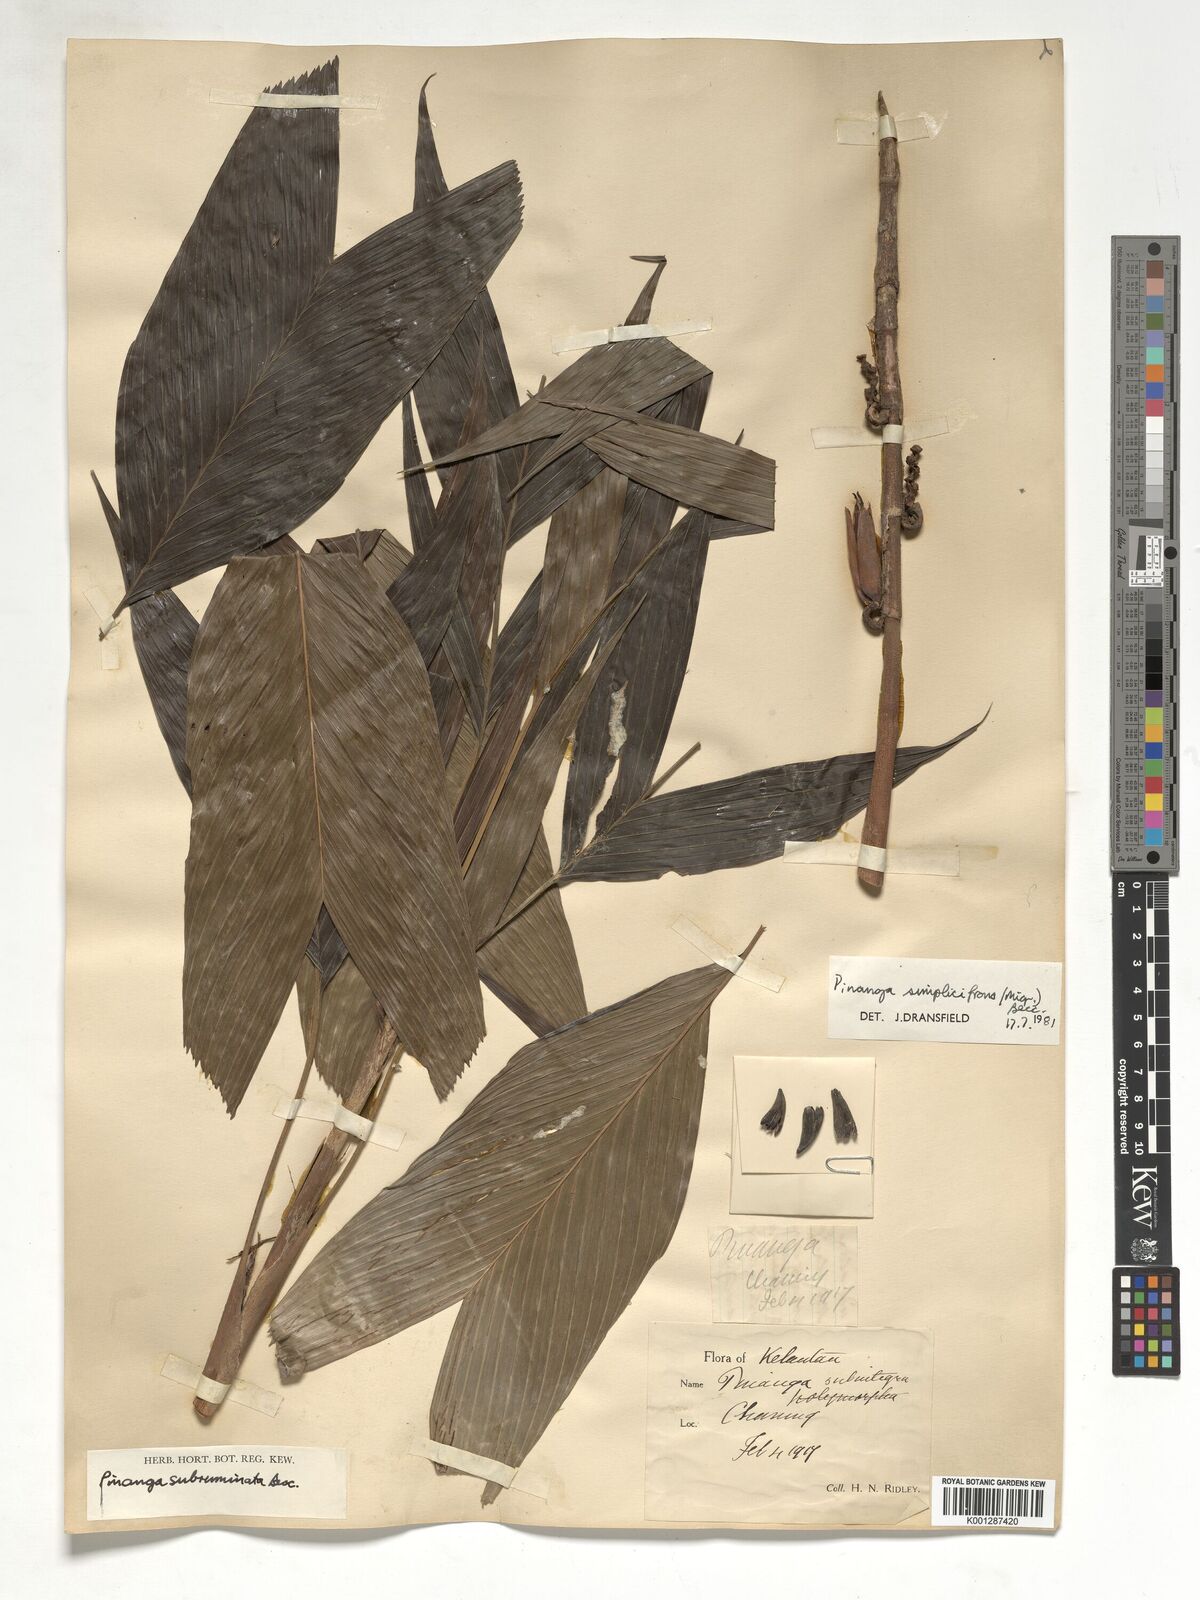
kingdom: Plantae
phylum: Tracheophyta
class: Liliopsida
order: Arecales
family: Arecaceae
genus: Pinanga
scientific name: Pinanga simplicifrons
